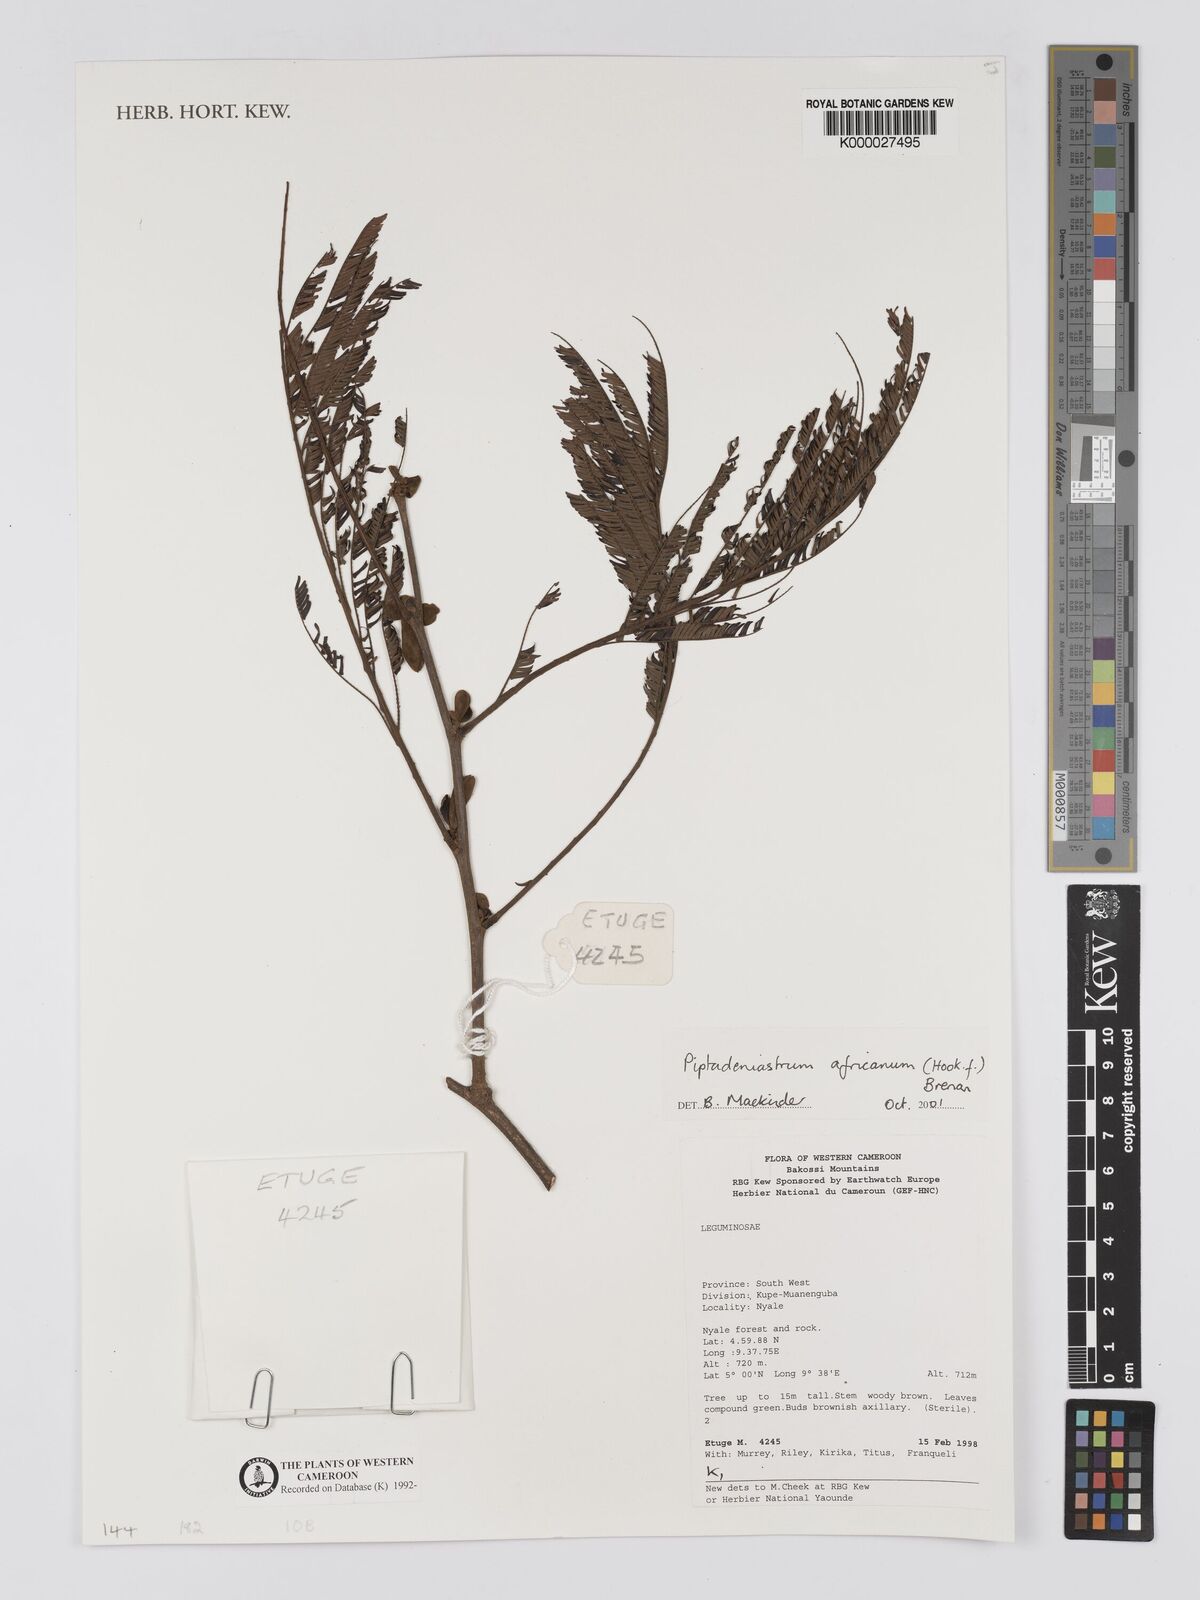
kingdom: Plantae
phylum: Tracheophyta
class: Magnoliopsida
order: Fabales
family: Fabaceae
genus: Piptadeniastrum
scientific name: Piptadeniastrum africanum
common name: African greenheart
